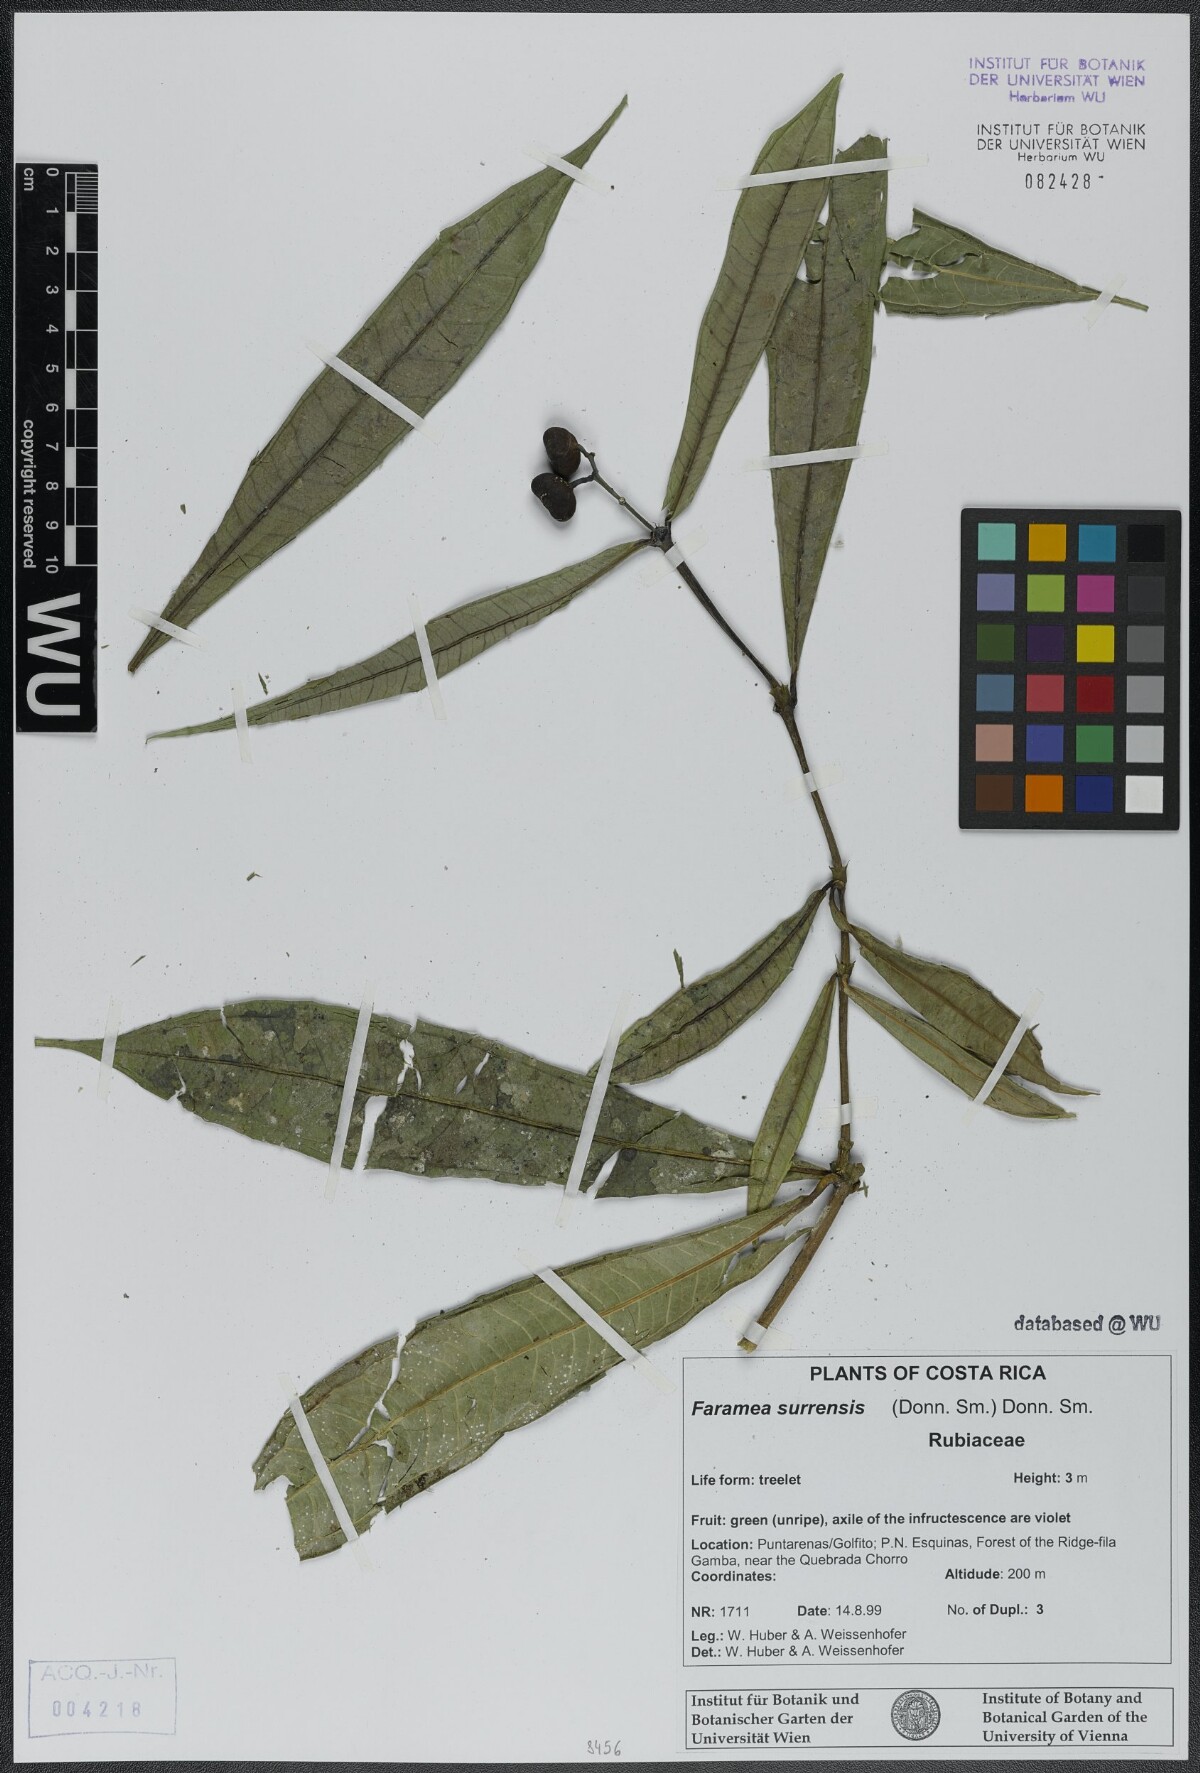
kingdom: Plantae
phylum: Tracheophyta
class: Magnoliopsida
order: Gentianales
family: Rubiaceae
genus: Faramea
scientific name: Faramea suerrensis
